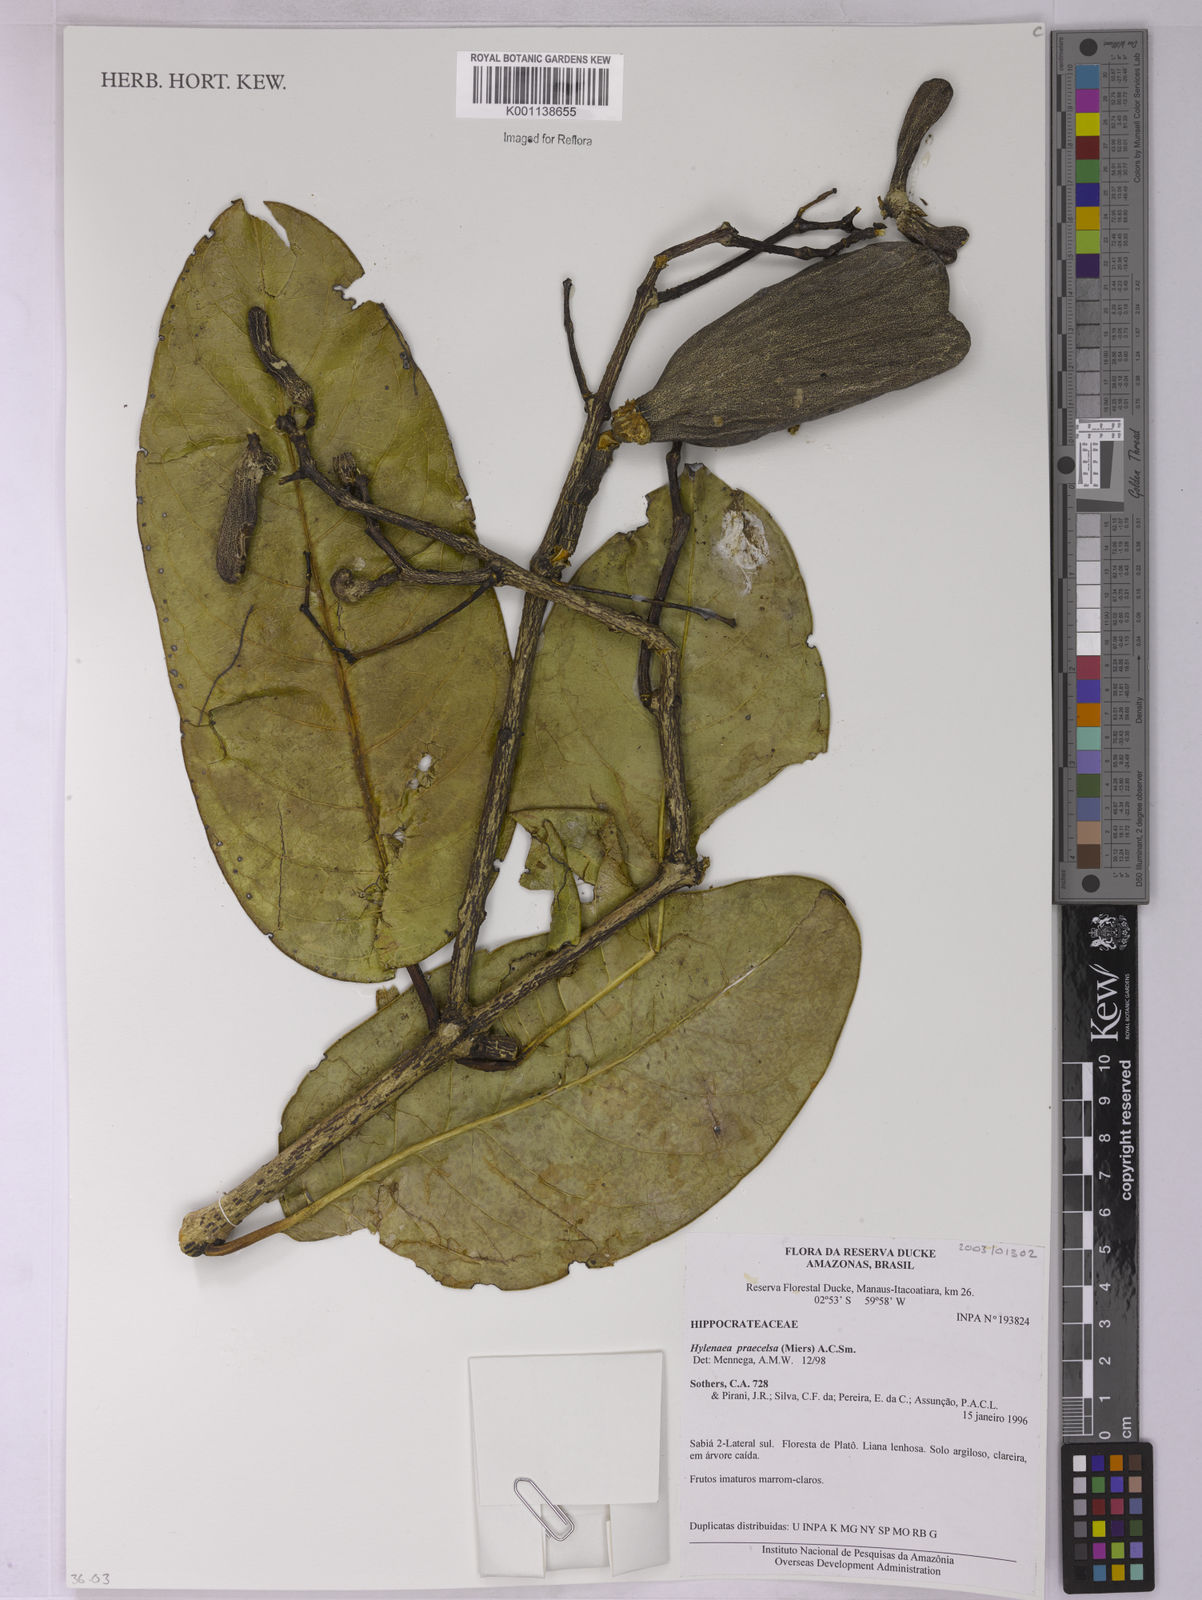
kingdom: Plantae
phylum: Tracheophyta
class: Magnoliopsida
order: Celastrales
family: Celastraceae
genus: Hylenaea
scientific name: Hylenaea praecelsa
